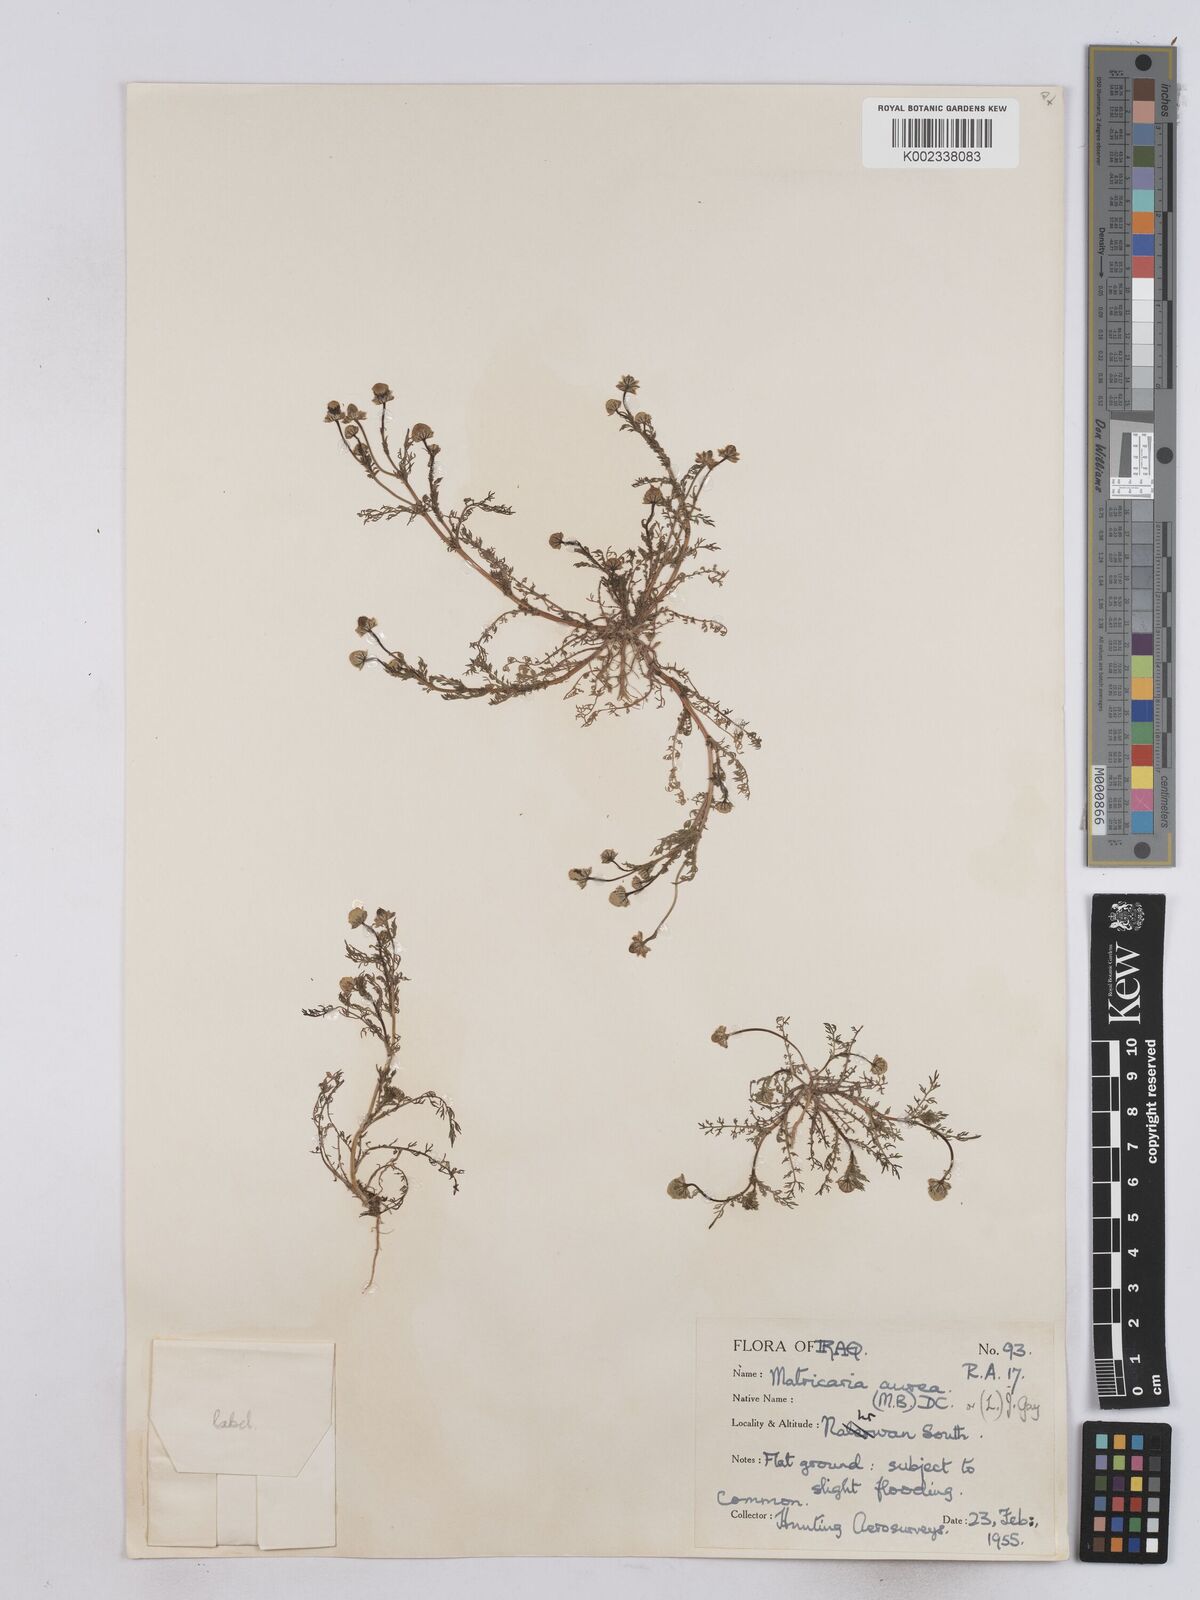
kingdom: Plantae
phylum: Tracheophyta
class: Magnoliopsida
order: Asterales
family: Asteraceae
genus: Matricaria
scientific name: Matricaria aurea
